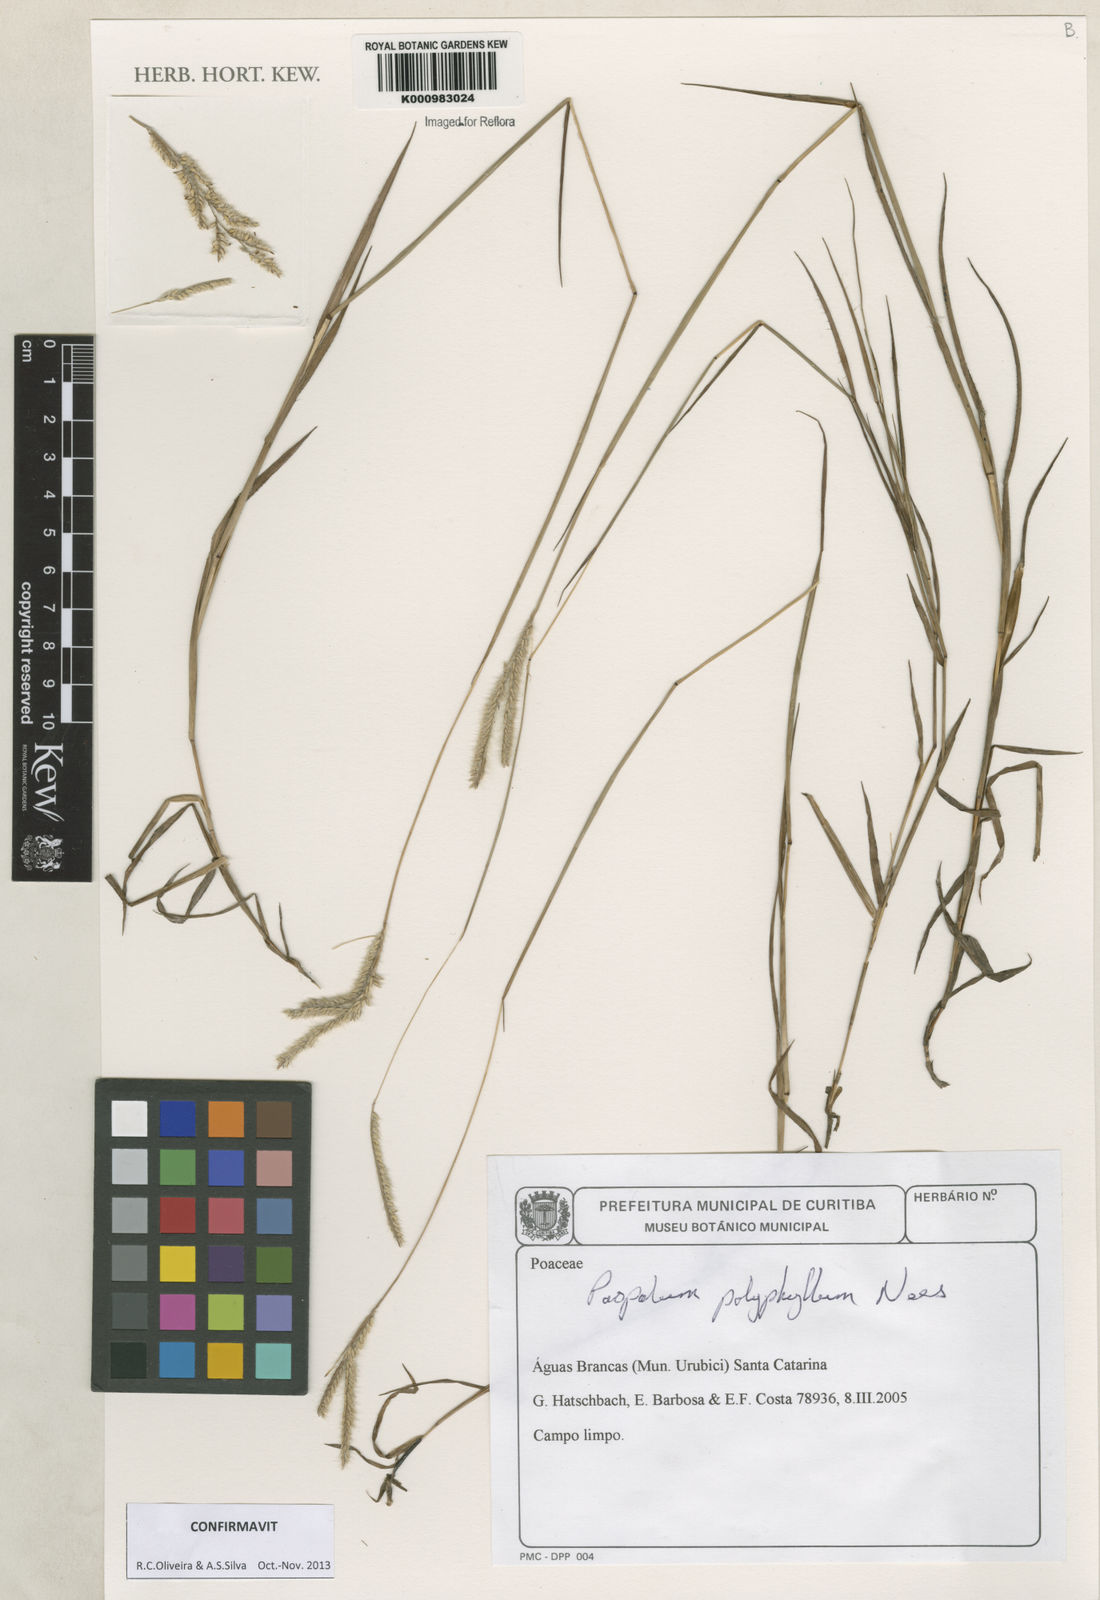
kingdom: Plantae
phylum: Tracheophyta
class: Liliopsida
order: Poales
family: Poaceae
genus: Paspalum
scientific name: Paspalum
